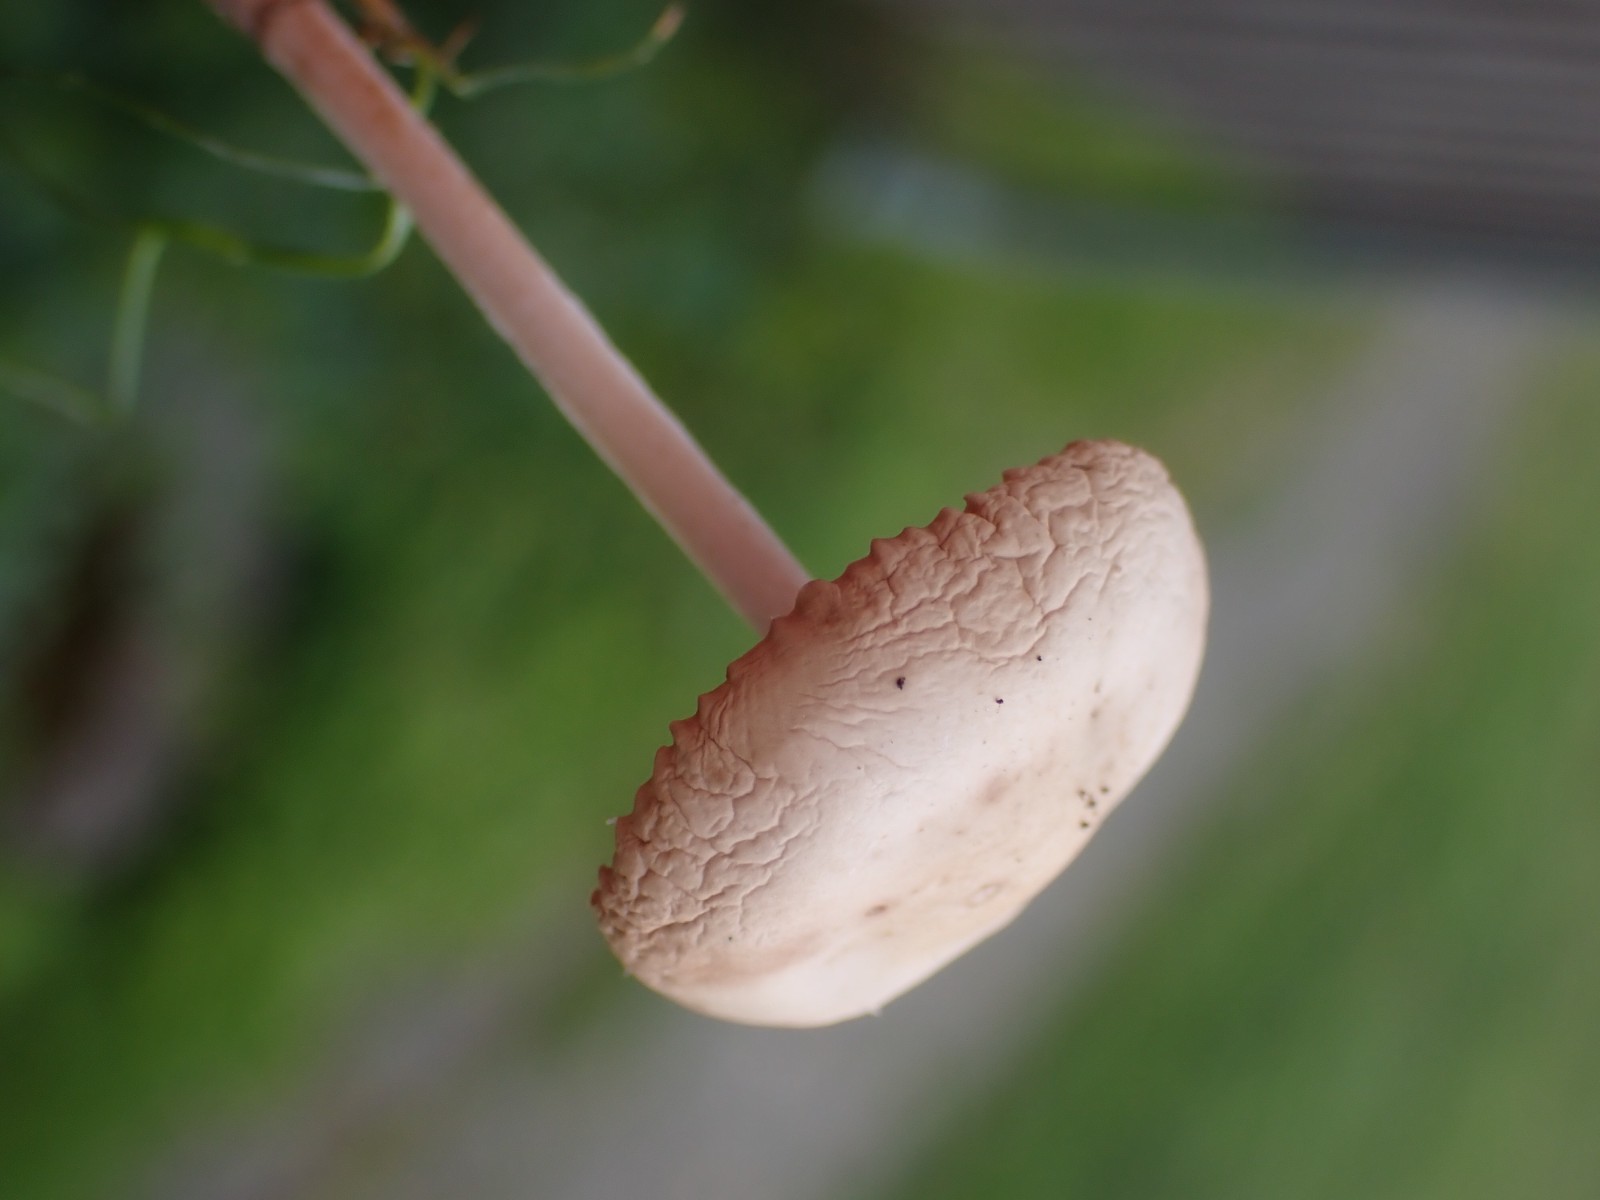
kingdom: Fungi
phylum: Basidiomycota
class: Agaricomycetes
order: Agaricales
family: Marasmiaceae
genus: Marasmius
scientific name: Marasmius oreades
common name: elledans-bruskhat
